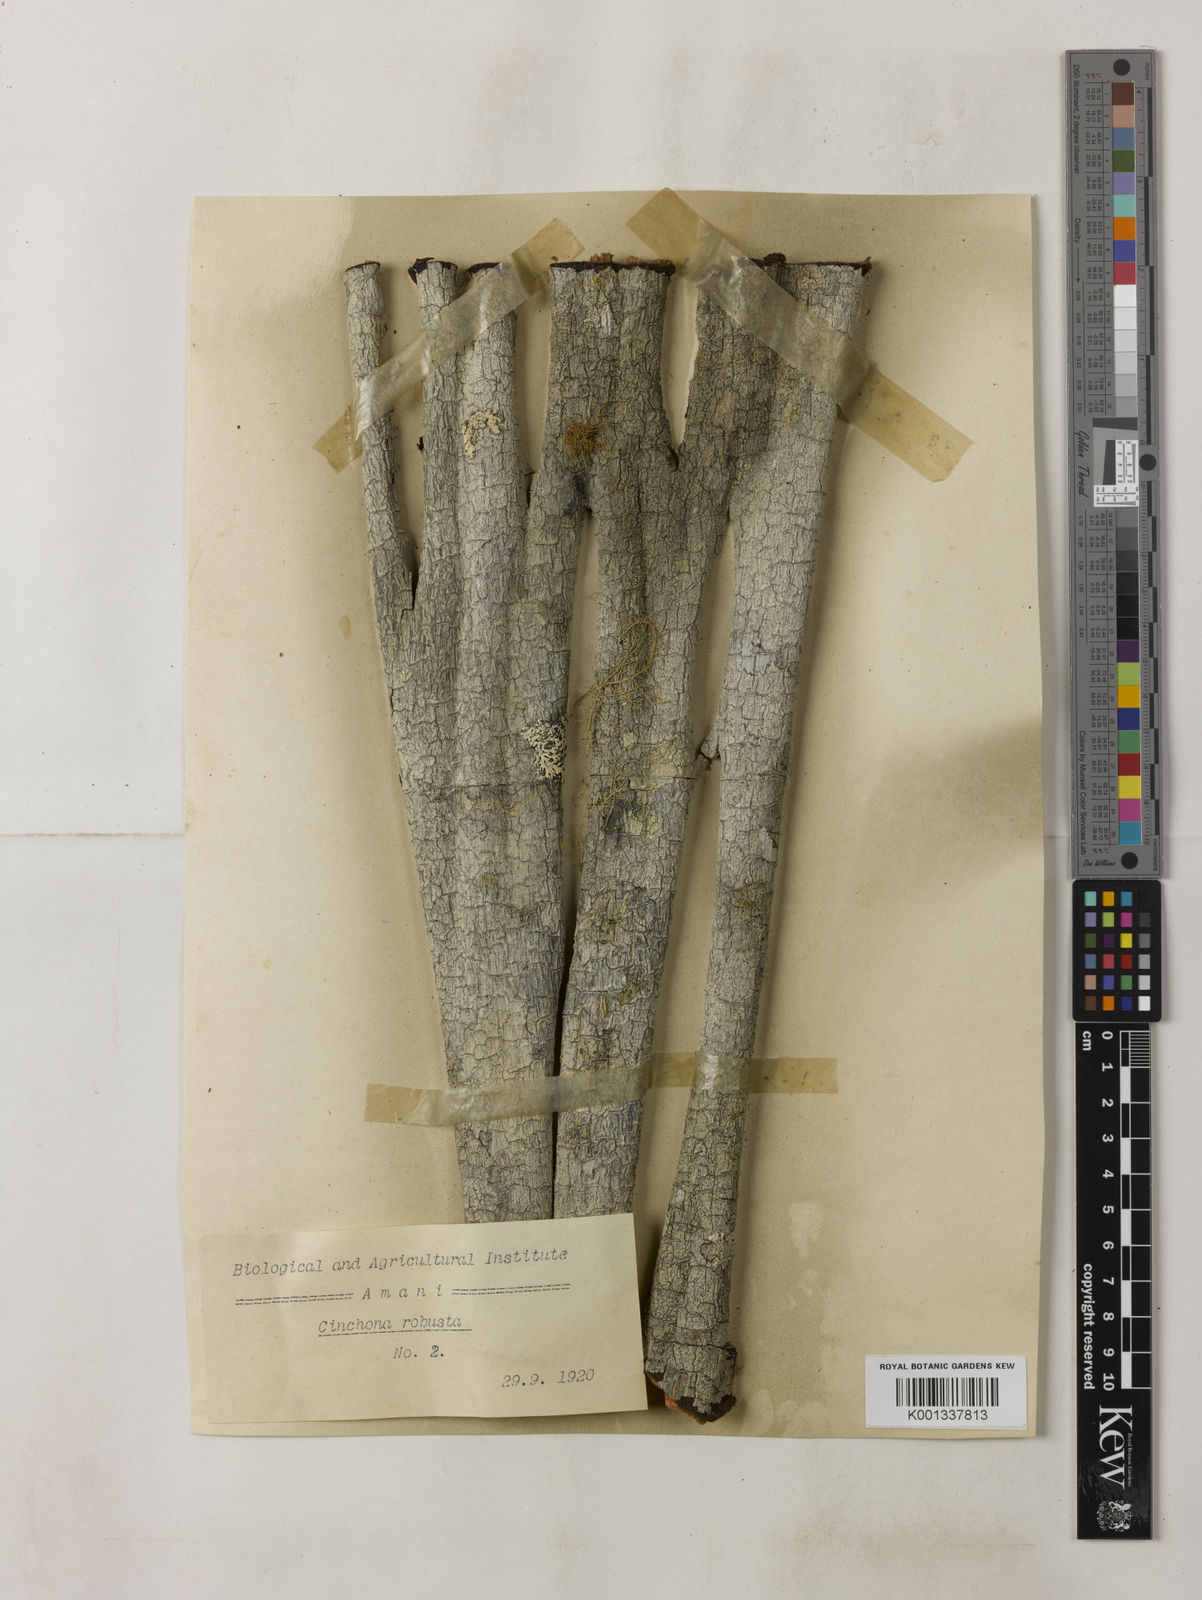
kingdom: Plantae
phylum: Tracheophyta
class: Magnoliopsida
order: Gentianales
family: Rubiaceae
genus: Cinchona
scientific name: Cinchona officinalis
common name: Lojabark
